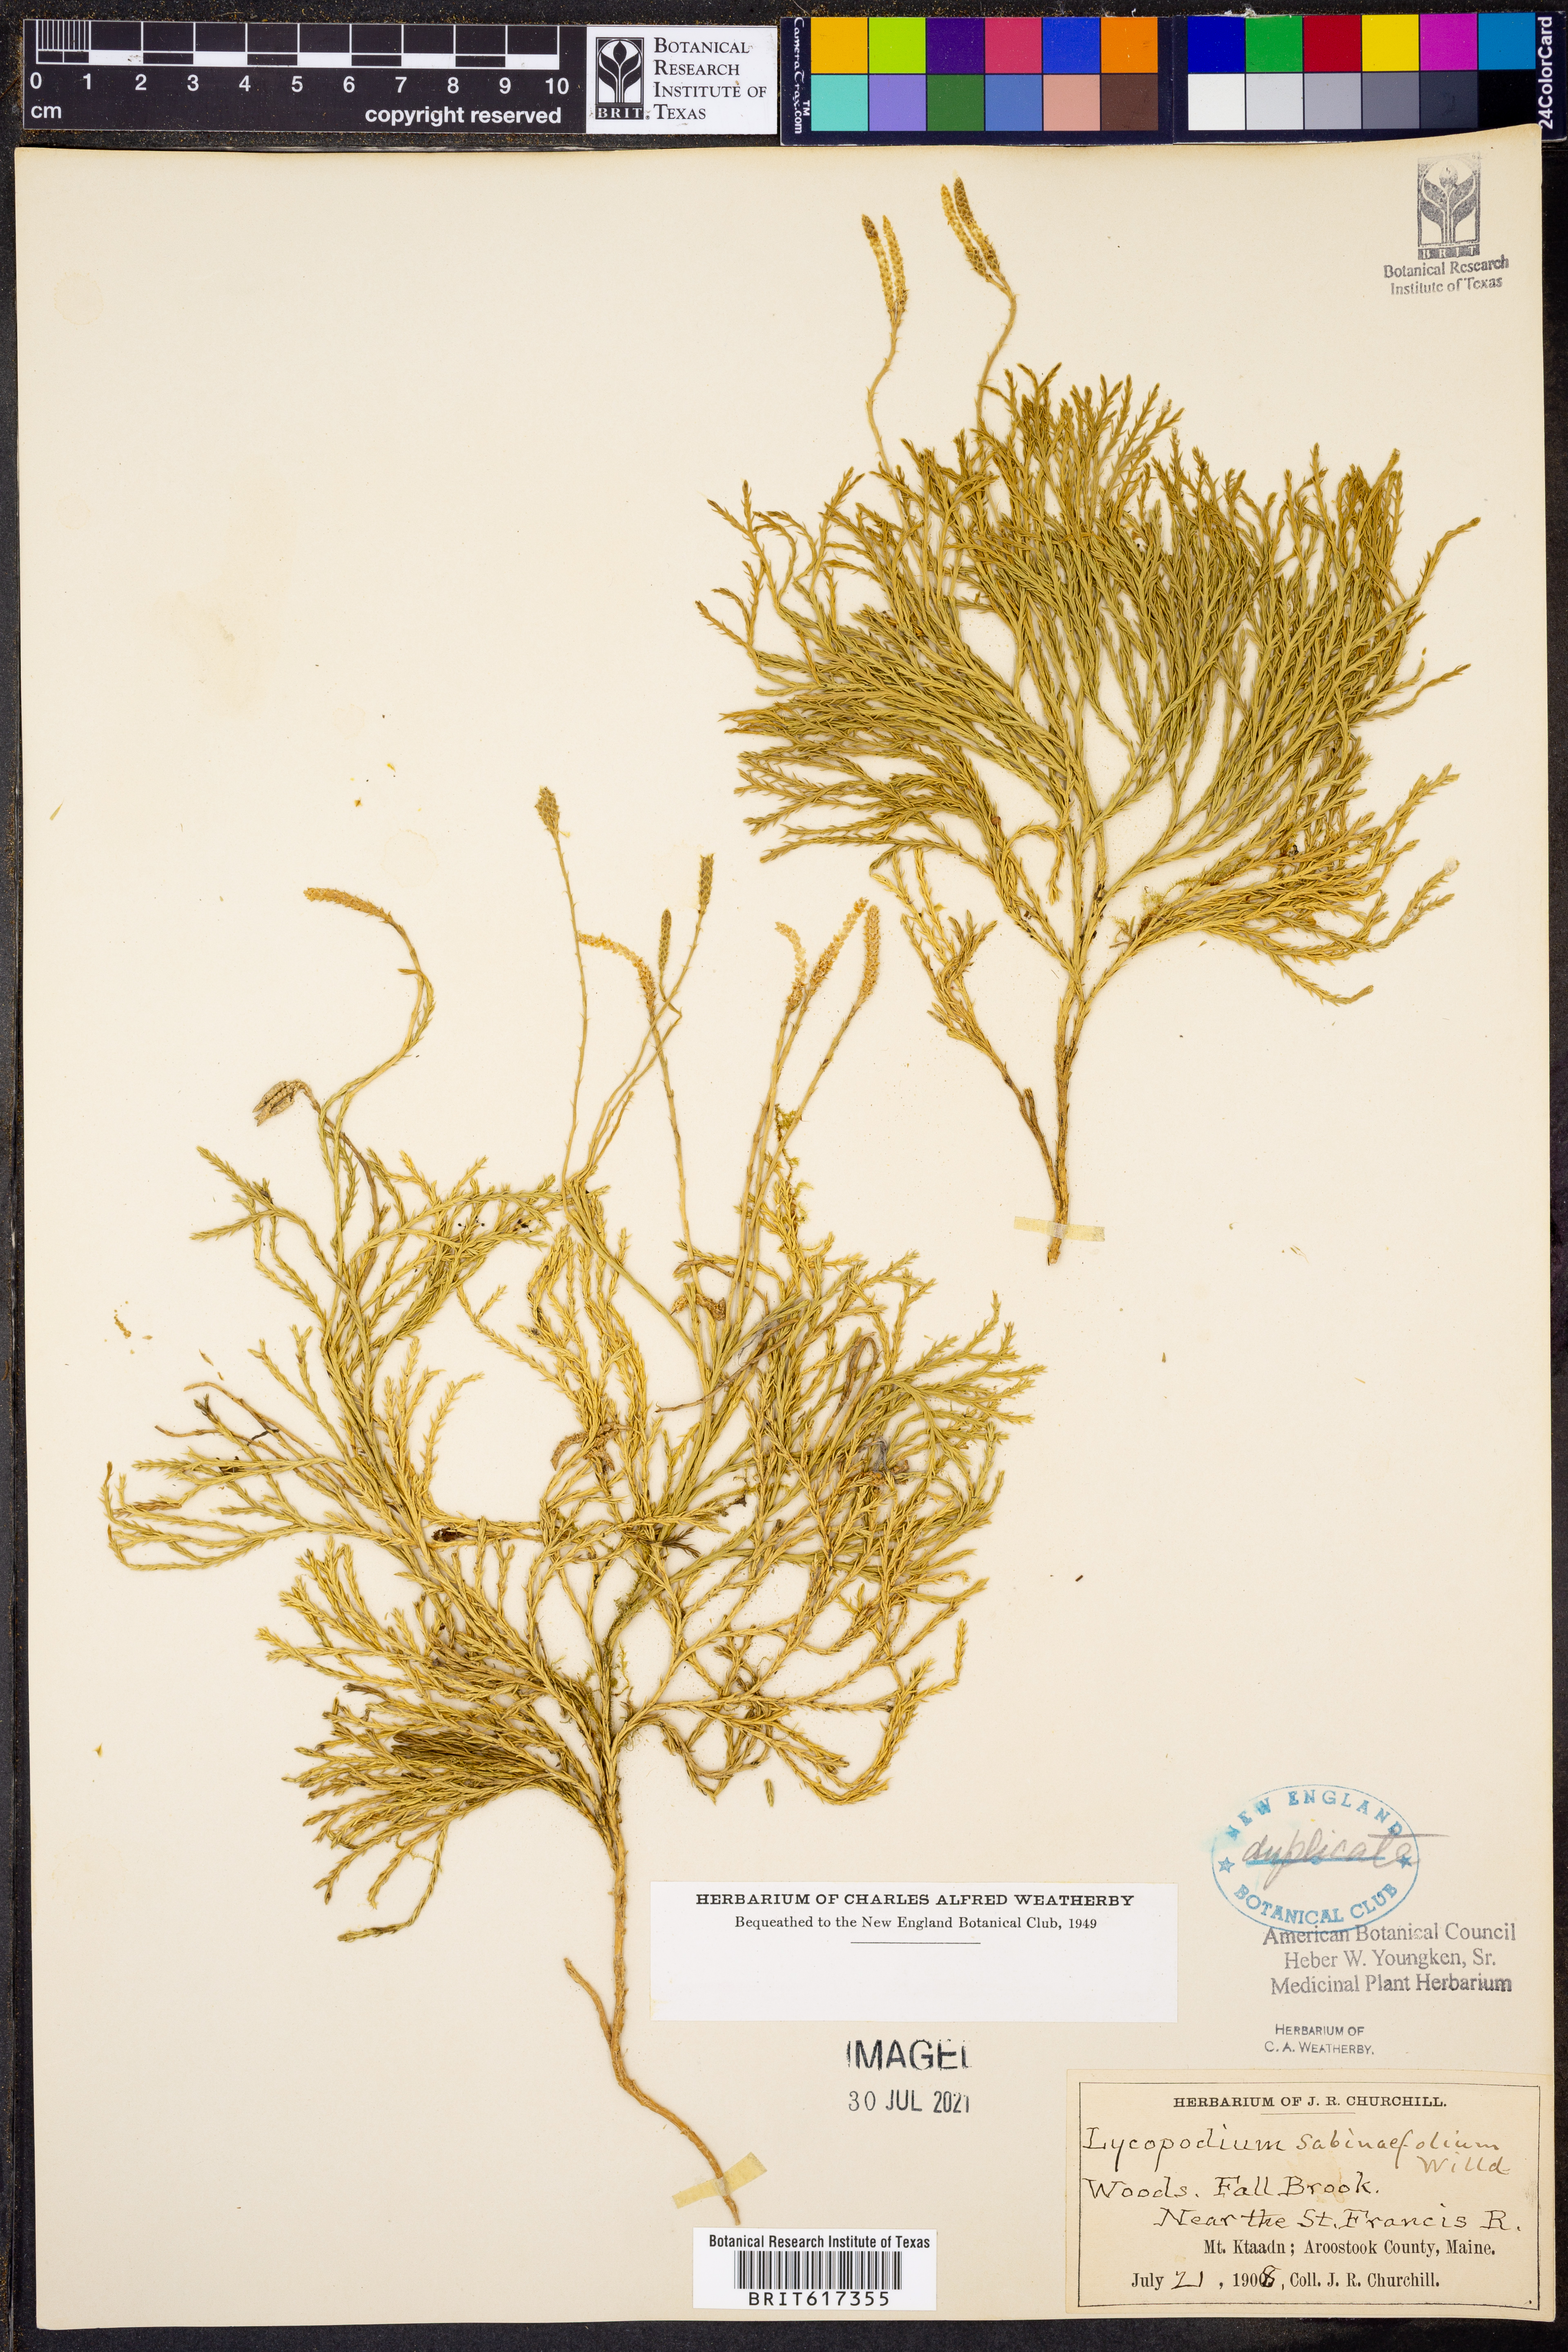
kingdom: Plantae
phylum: Tracheophyta
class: Lycopodiopsida
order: Lycopodiales
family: Lycopodiaceae
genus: Lycopodium
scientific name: Lycopodium sabinaefolium
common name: Savinleaf groundpine
